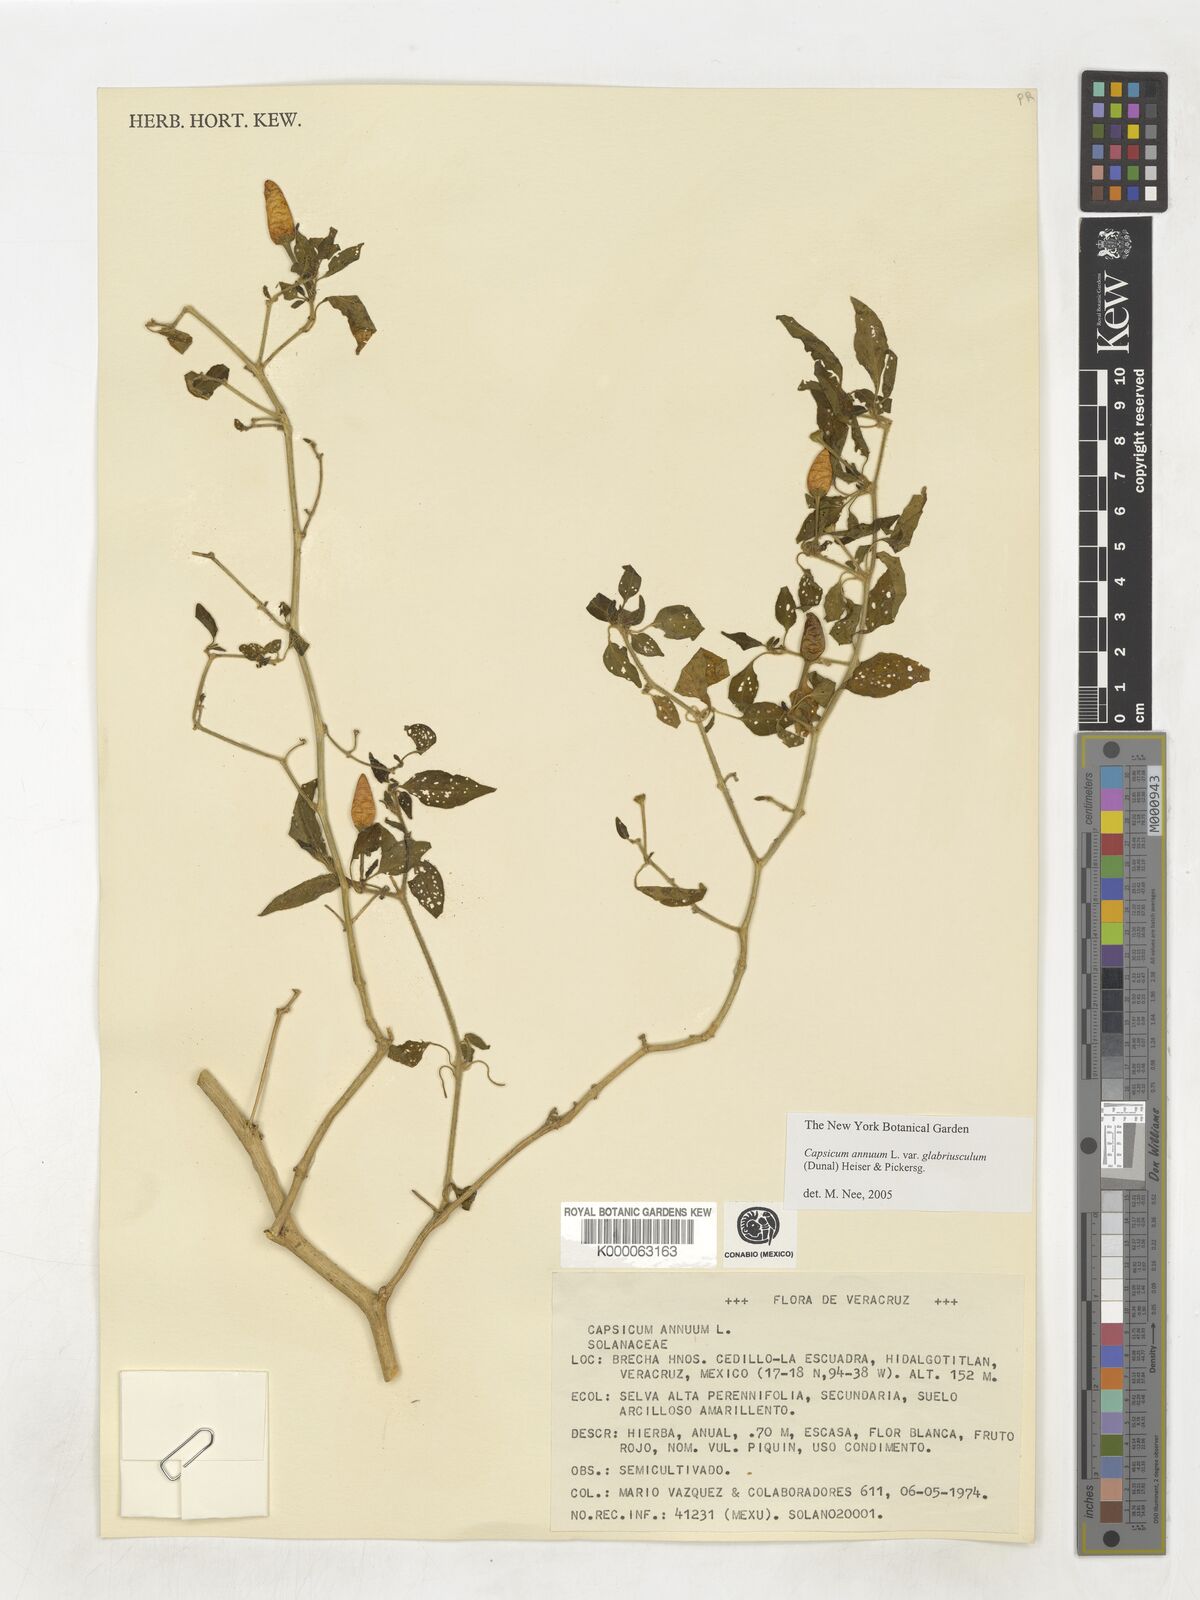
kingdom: Plantae
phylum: Tracheophyta
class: Magnoliopsida
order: Solanales
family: Solanaceae
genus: Capsicum
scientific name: Capsicum annuum
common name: Sweet pepper
